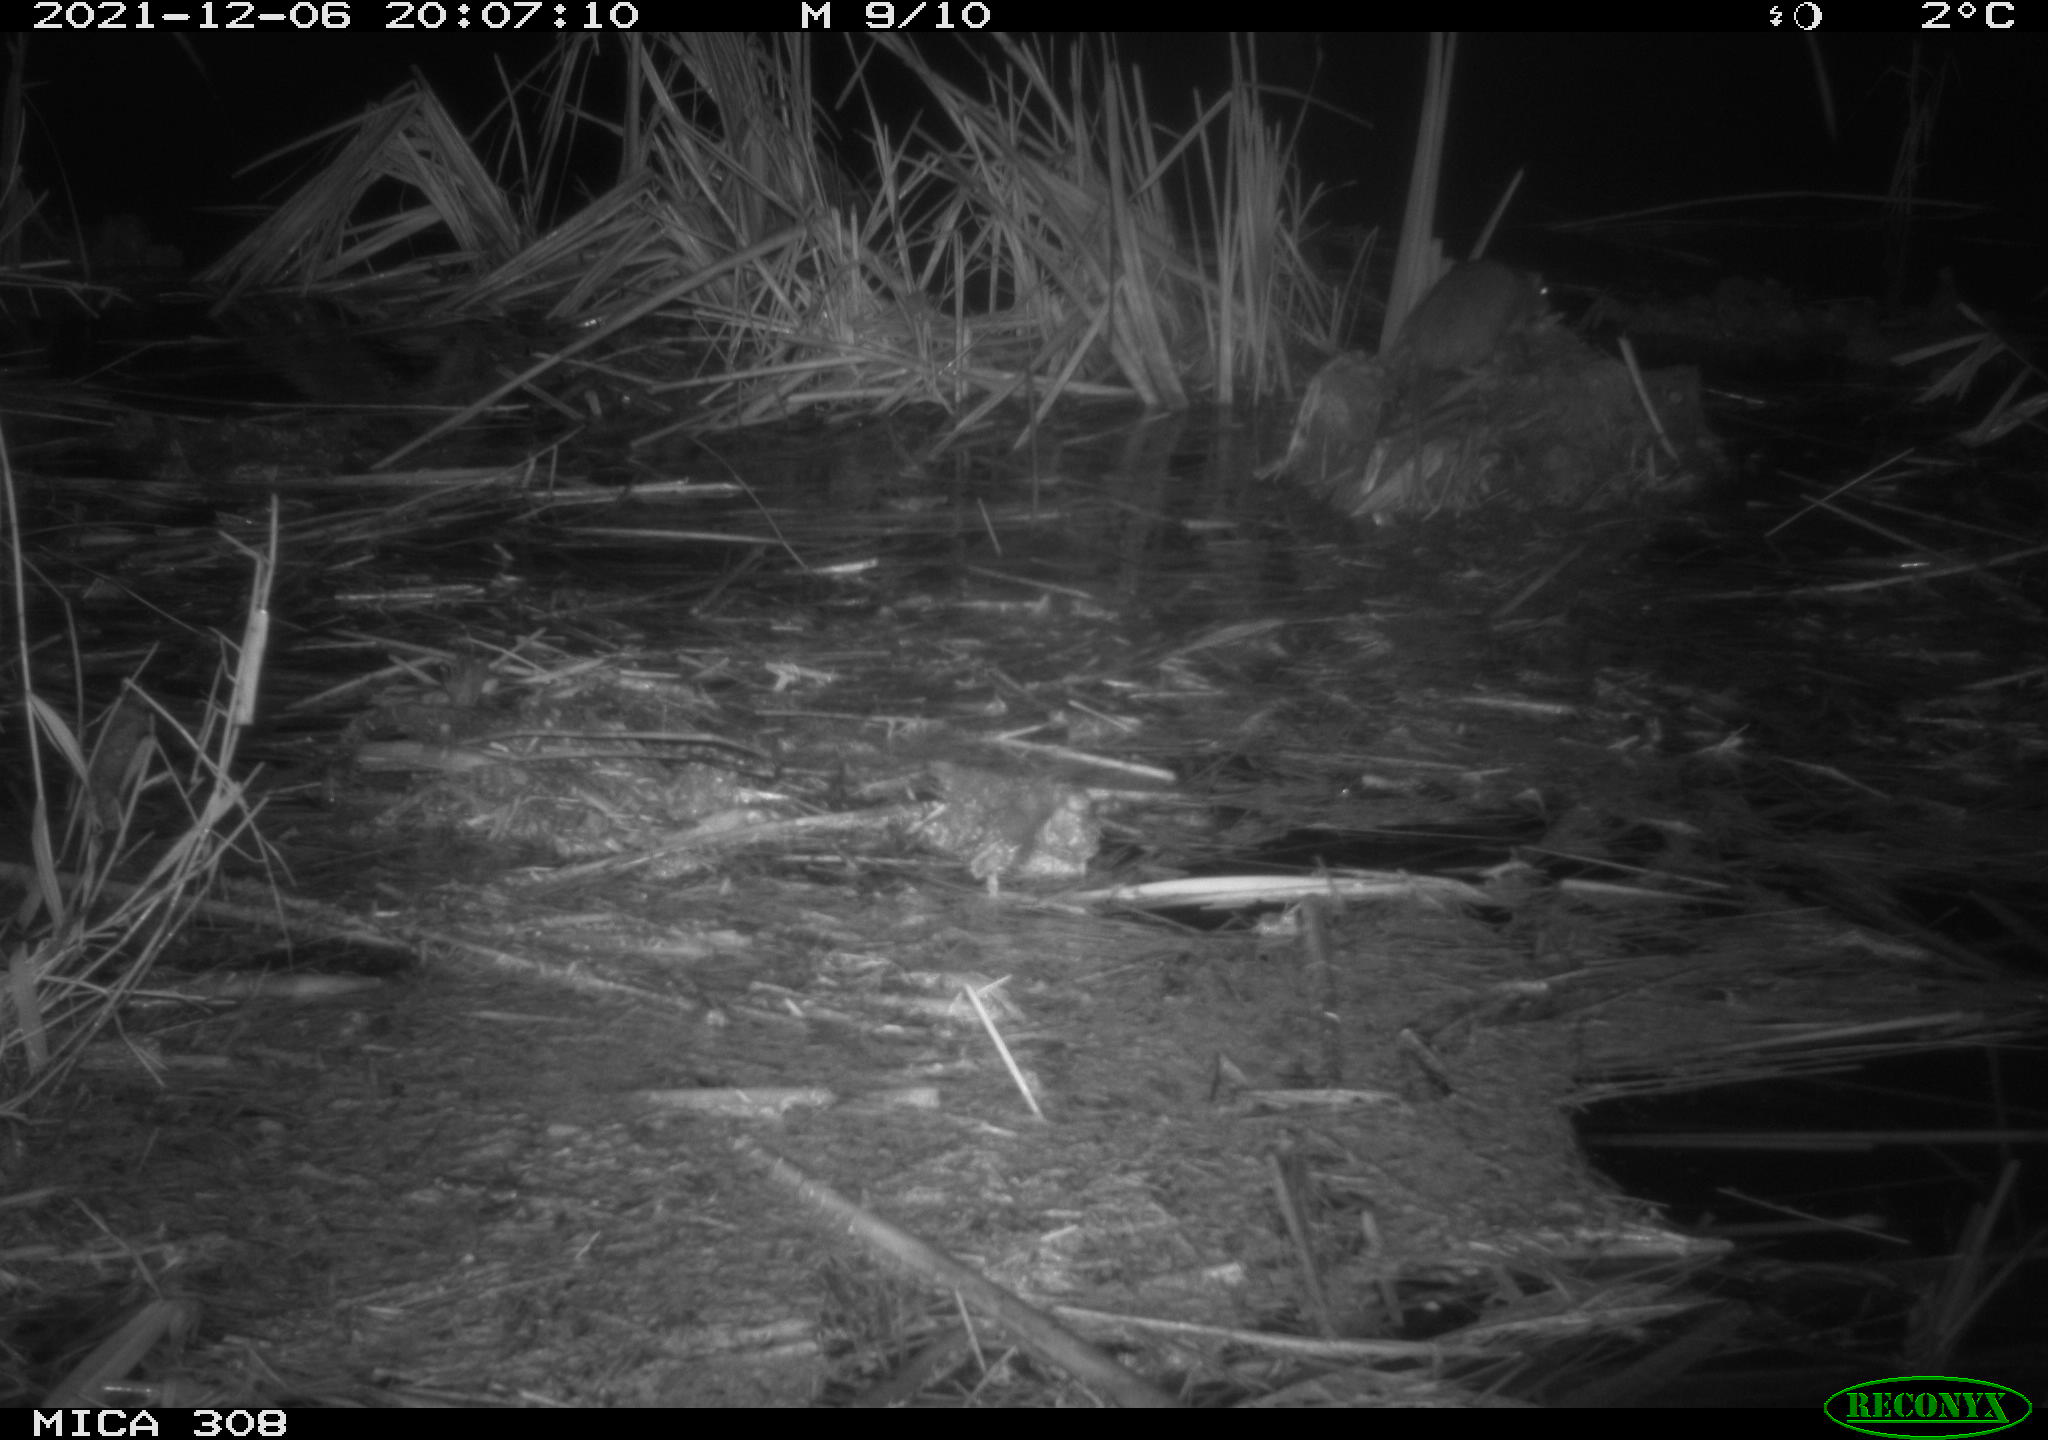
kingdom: Animalia
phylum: Chordata
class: Mammalia
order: Rodentia
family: Muridae
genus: Rattus
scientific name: Rattus norvegicus
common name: Brown rat
